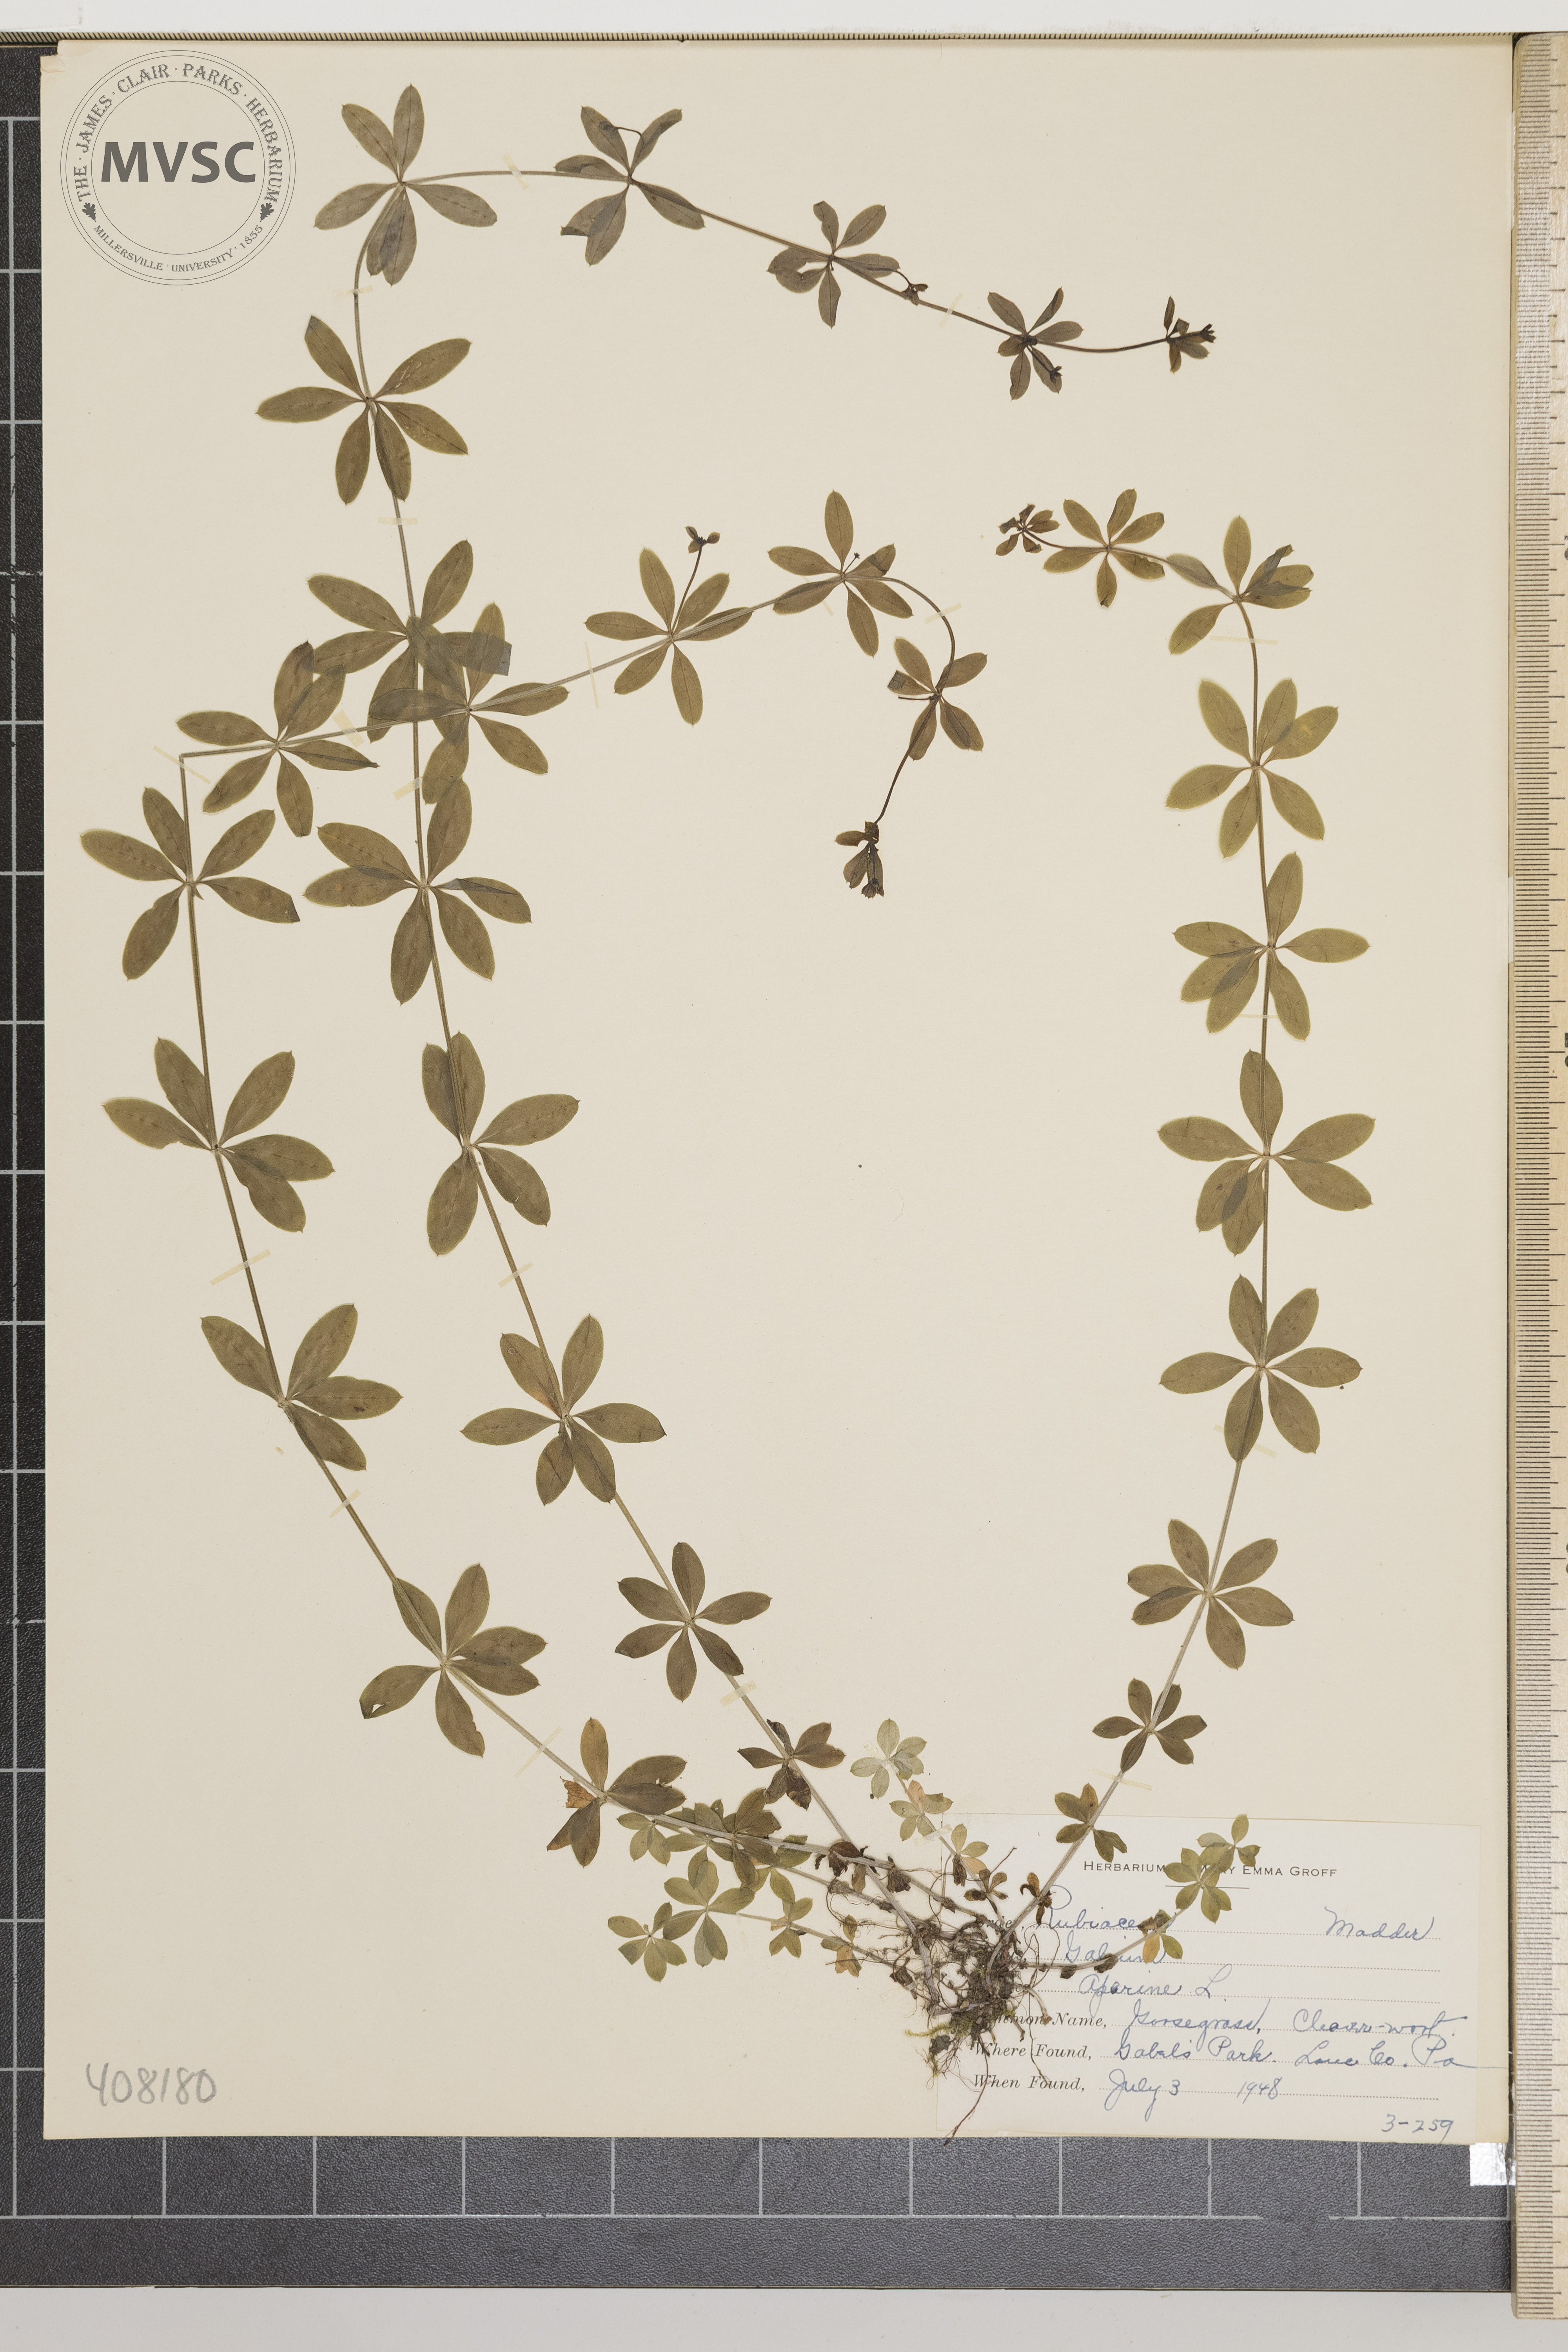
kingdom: Plantae
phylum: Tracheophyta
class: Magnoliopsida
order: Gentianales
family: Rubiaceae
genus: Galium
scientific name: Galium aparine
